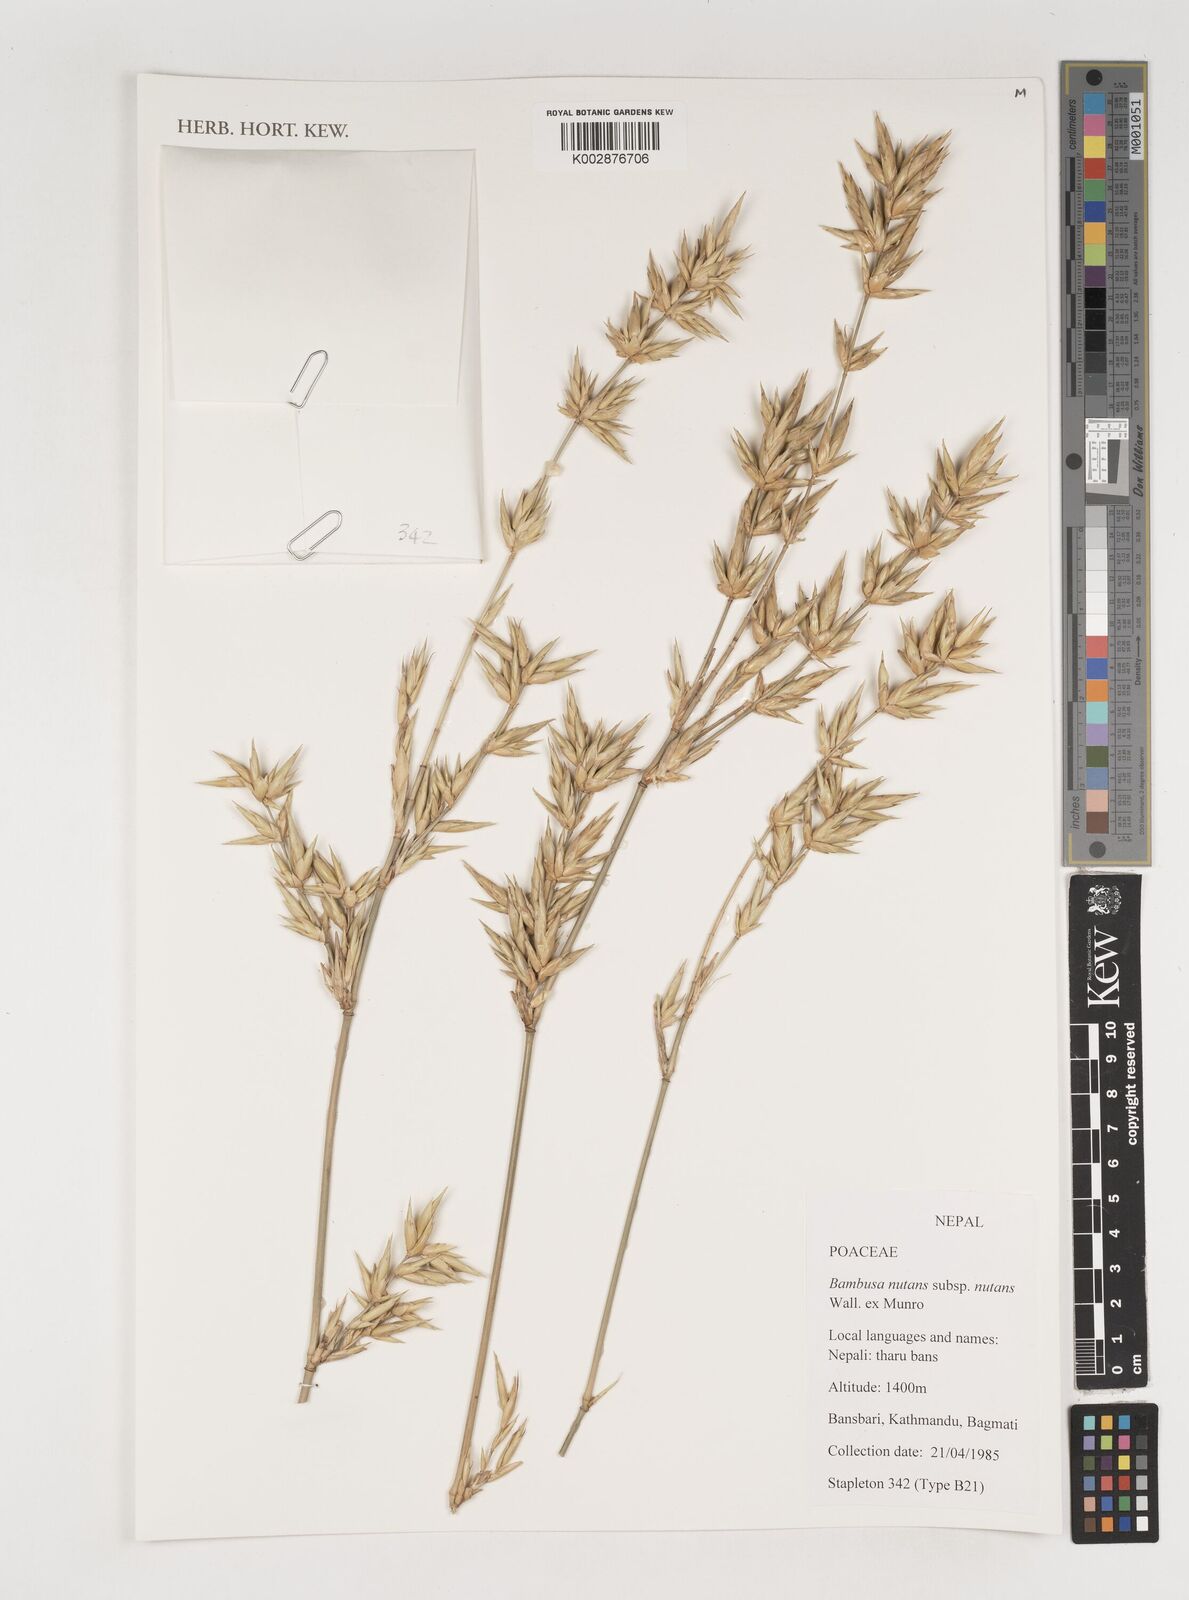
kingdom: Plantae
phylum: Tracheophyta
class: Liliopsida
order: Poales
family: Poaceae
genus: Bambusa
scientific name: Bambusa nutans
